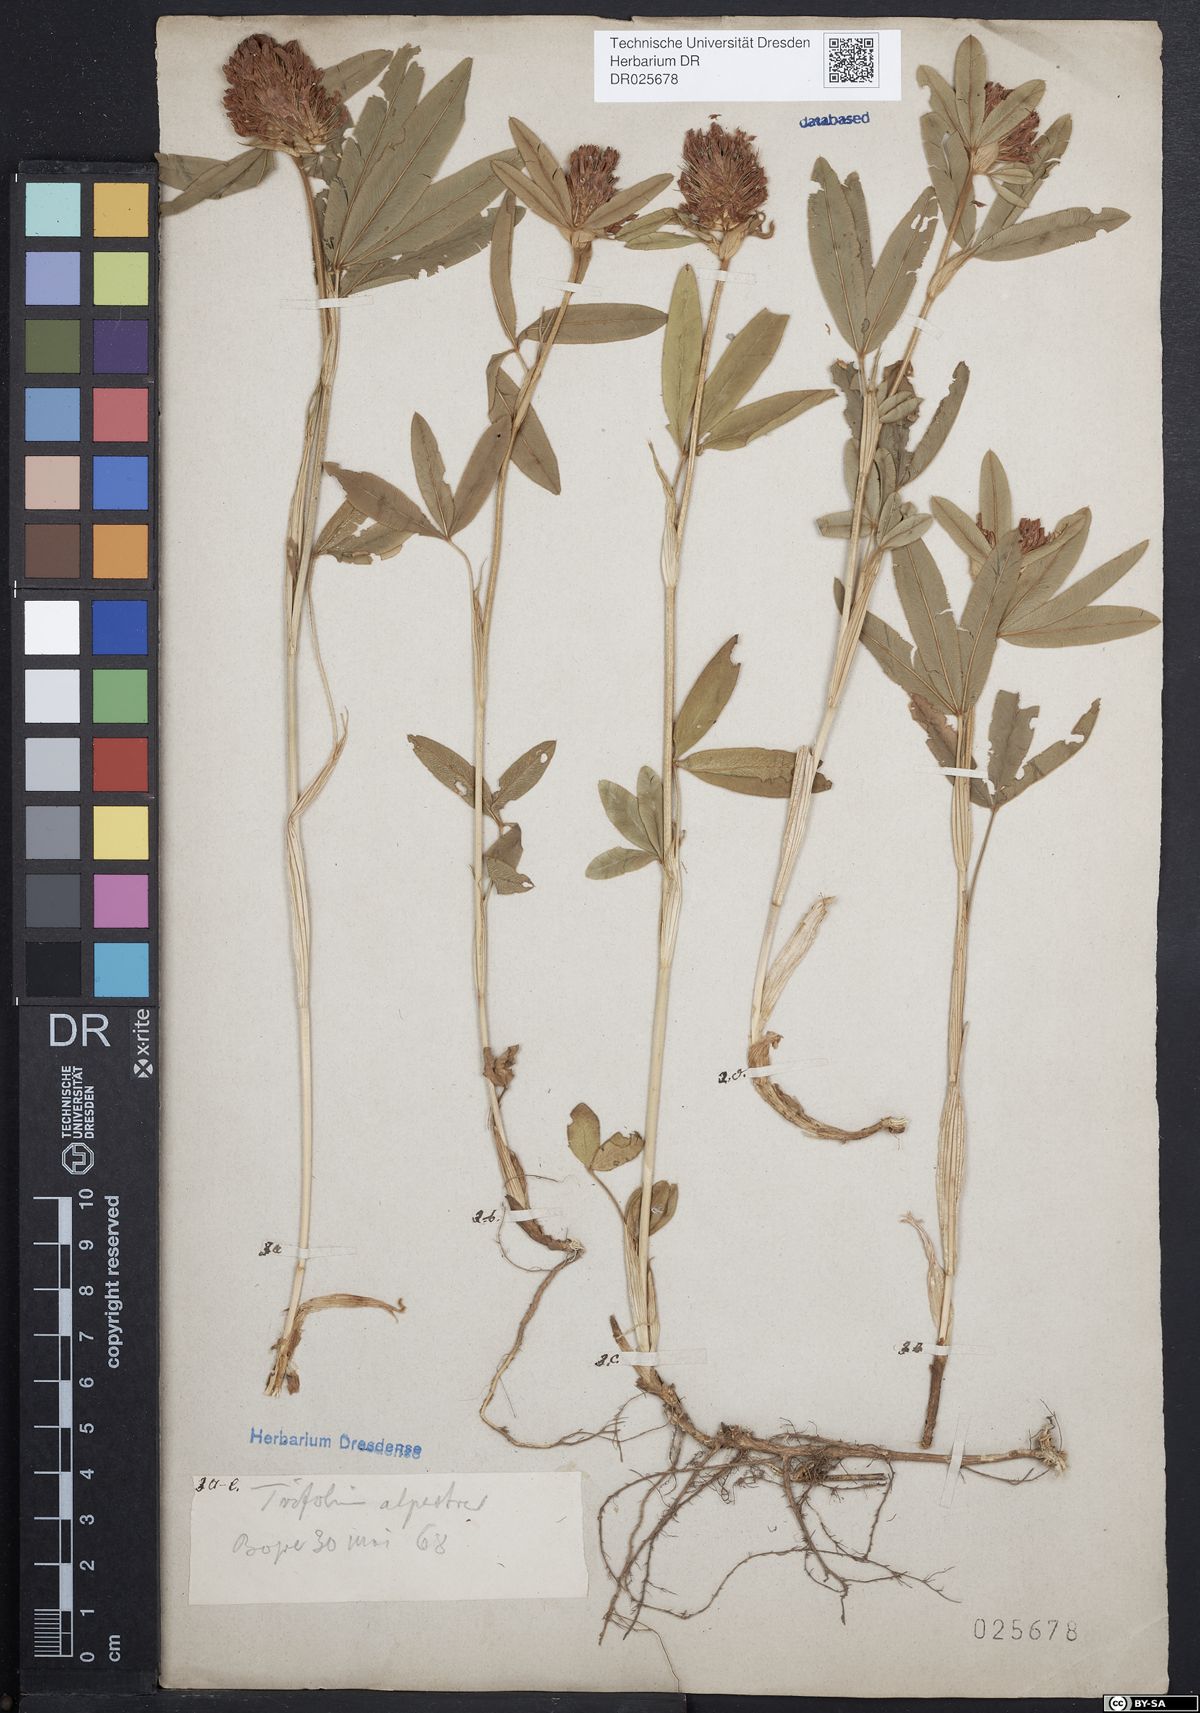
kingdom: Plantae
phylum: Tracheophyta
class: Magnoliopsida
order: Fabales
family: Fabaceae
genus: Trifolium
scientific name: Trifolium alpestre
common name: Owl-head clover
